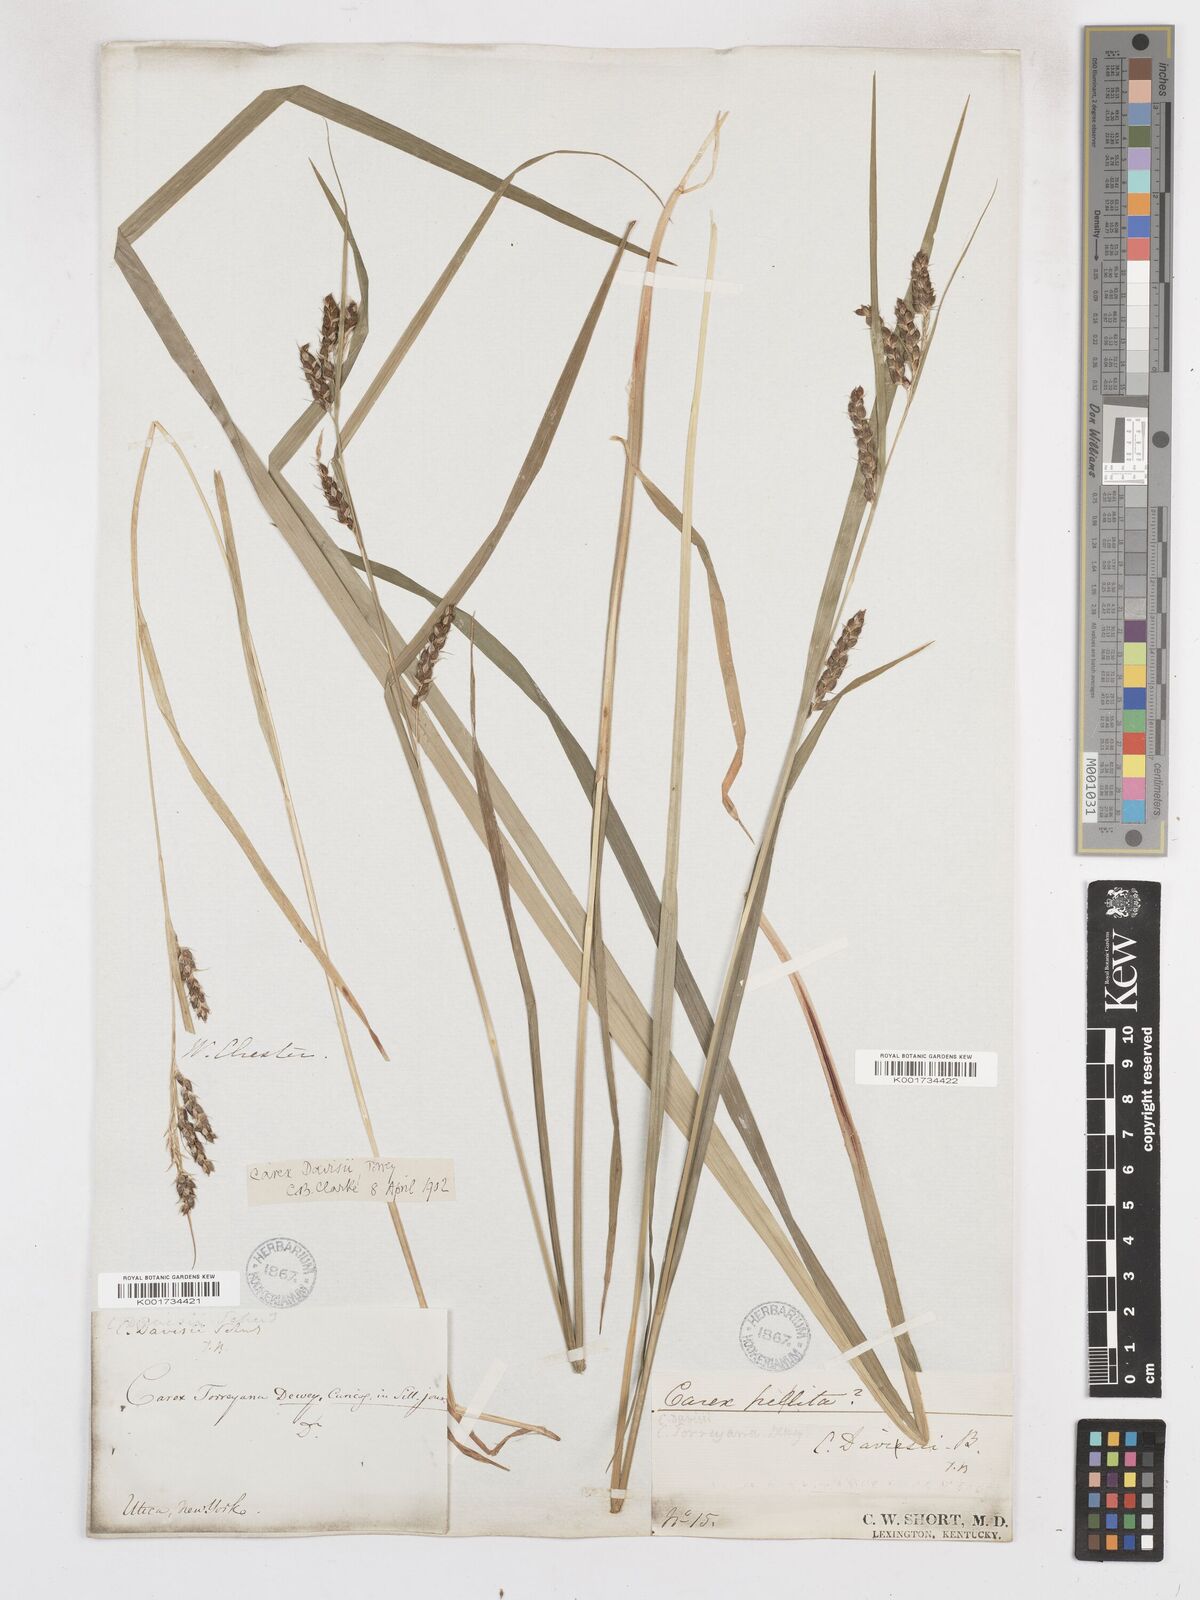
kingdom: Plantae
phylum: Tracheophyta
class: Liliopsida
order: Poales
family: Cyperaceae
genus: Carex
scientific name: Carex davisii
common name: Davis' sedge
